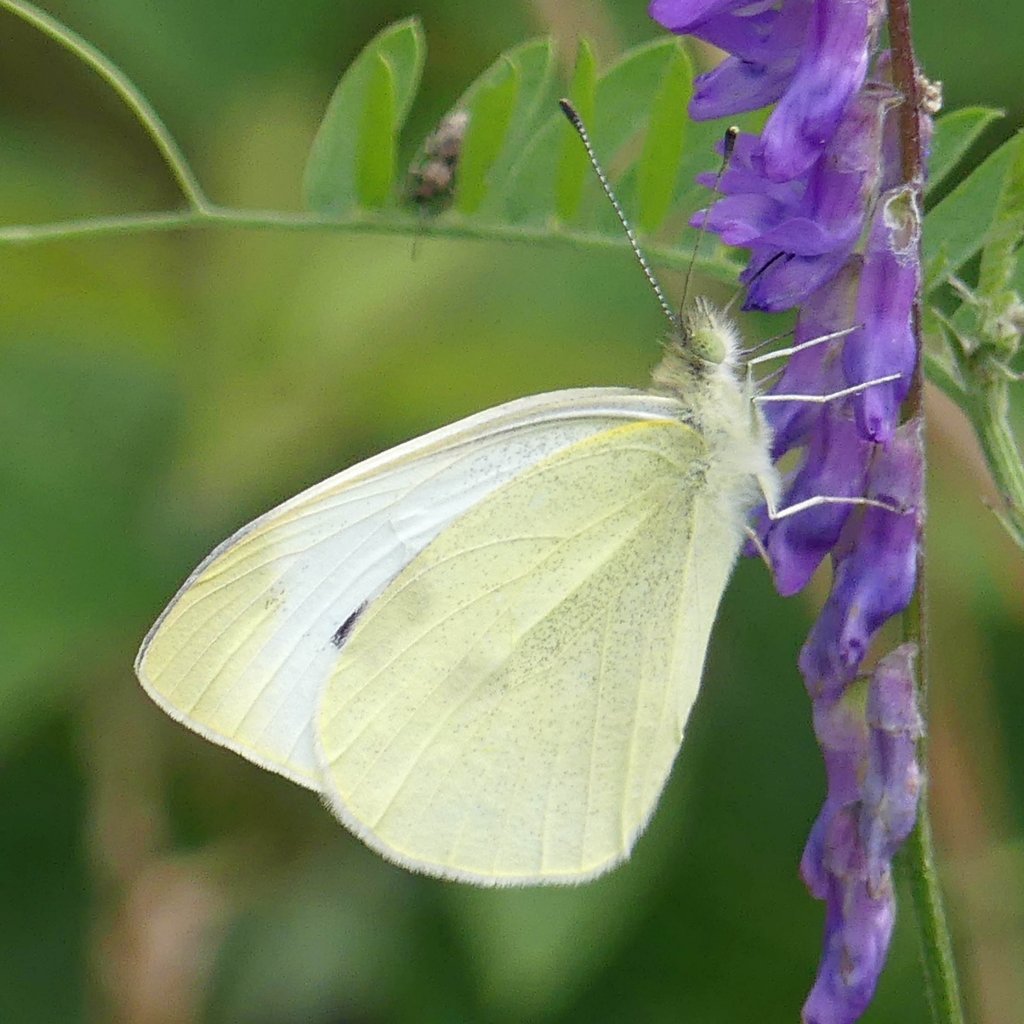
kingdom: Animalia
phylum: Arthropoda
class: Insecta
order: Lepidoptera
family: Pieridae
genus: Pieris
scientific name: Pieris rapae
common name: Cabbage White
